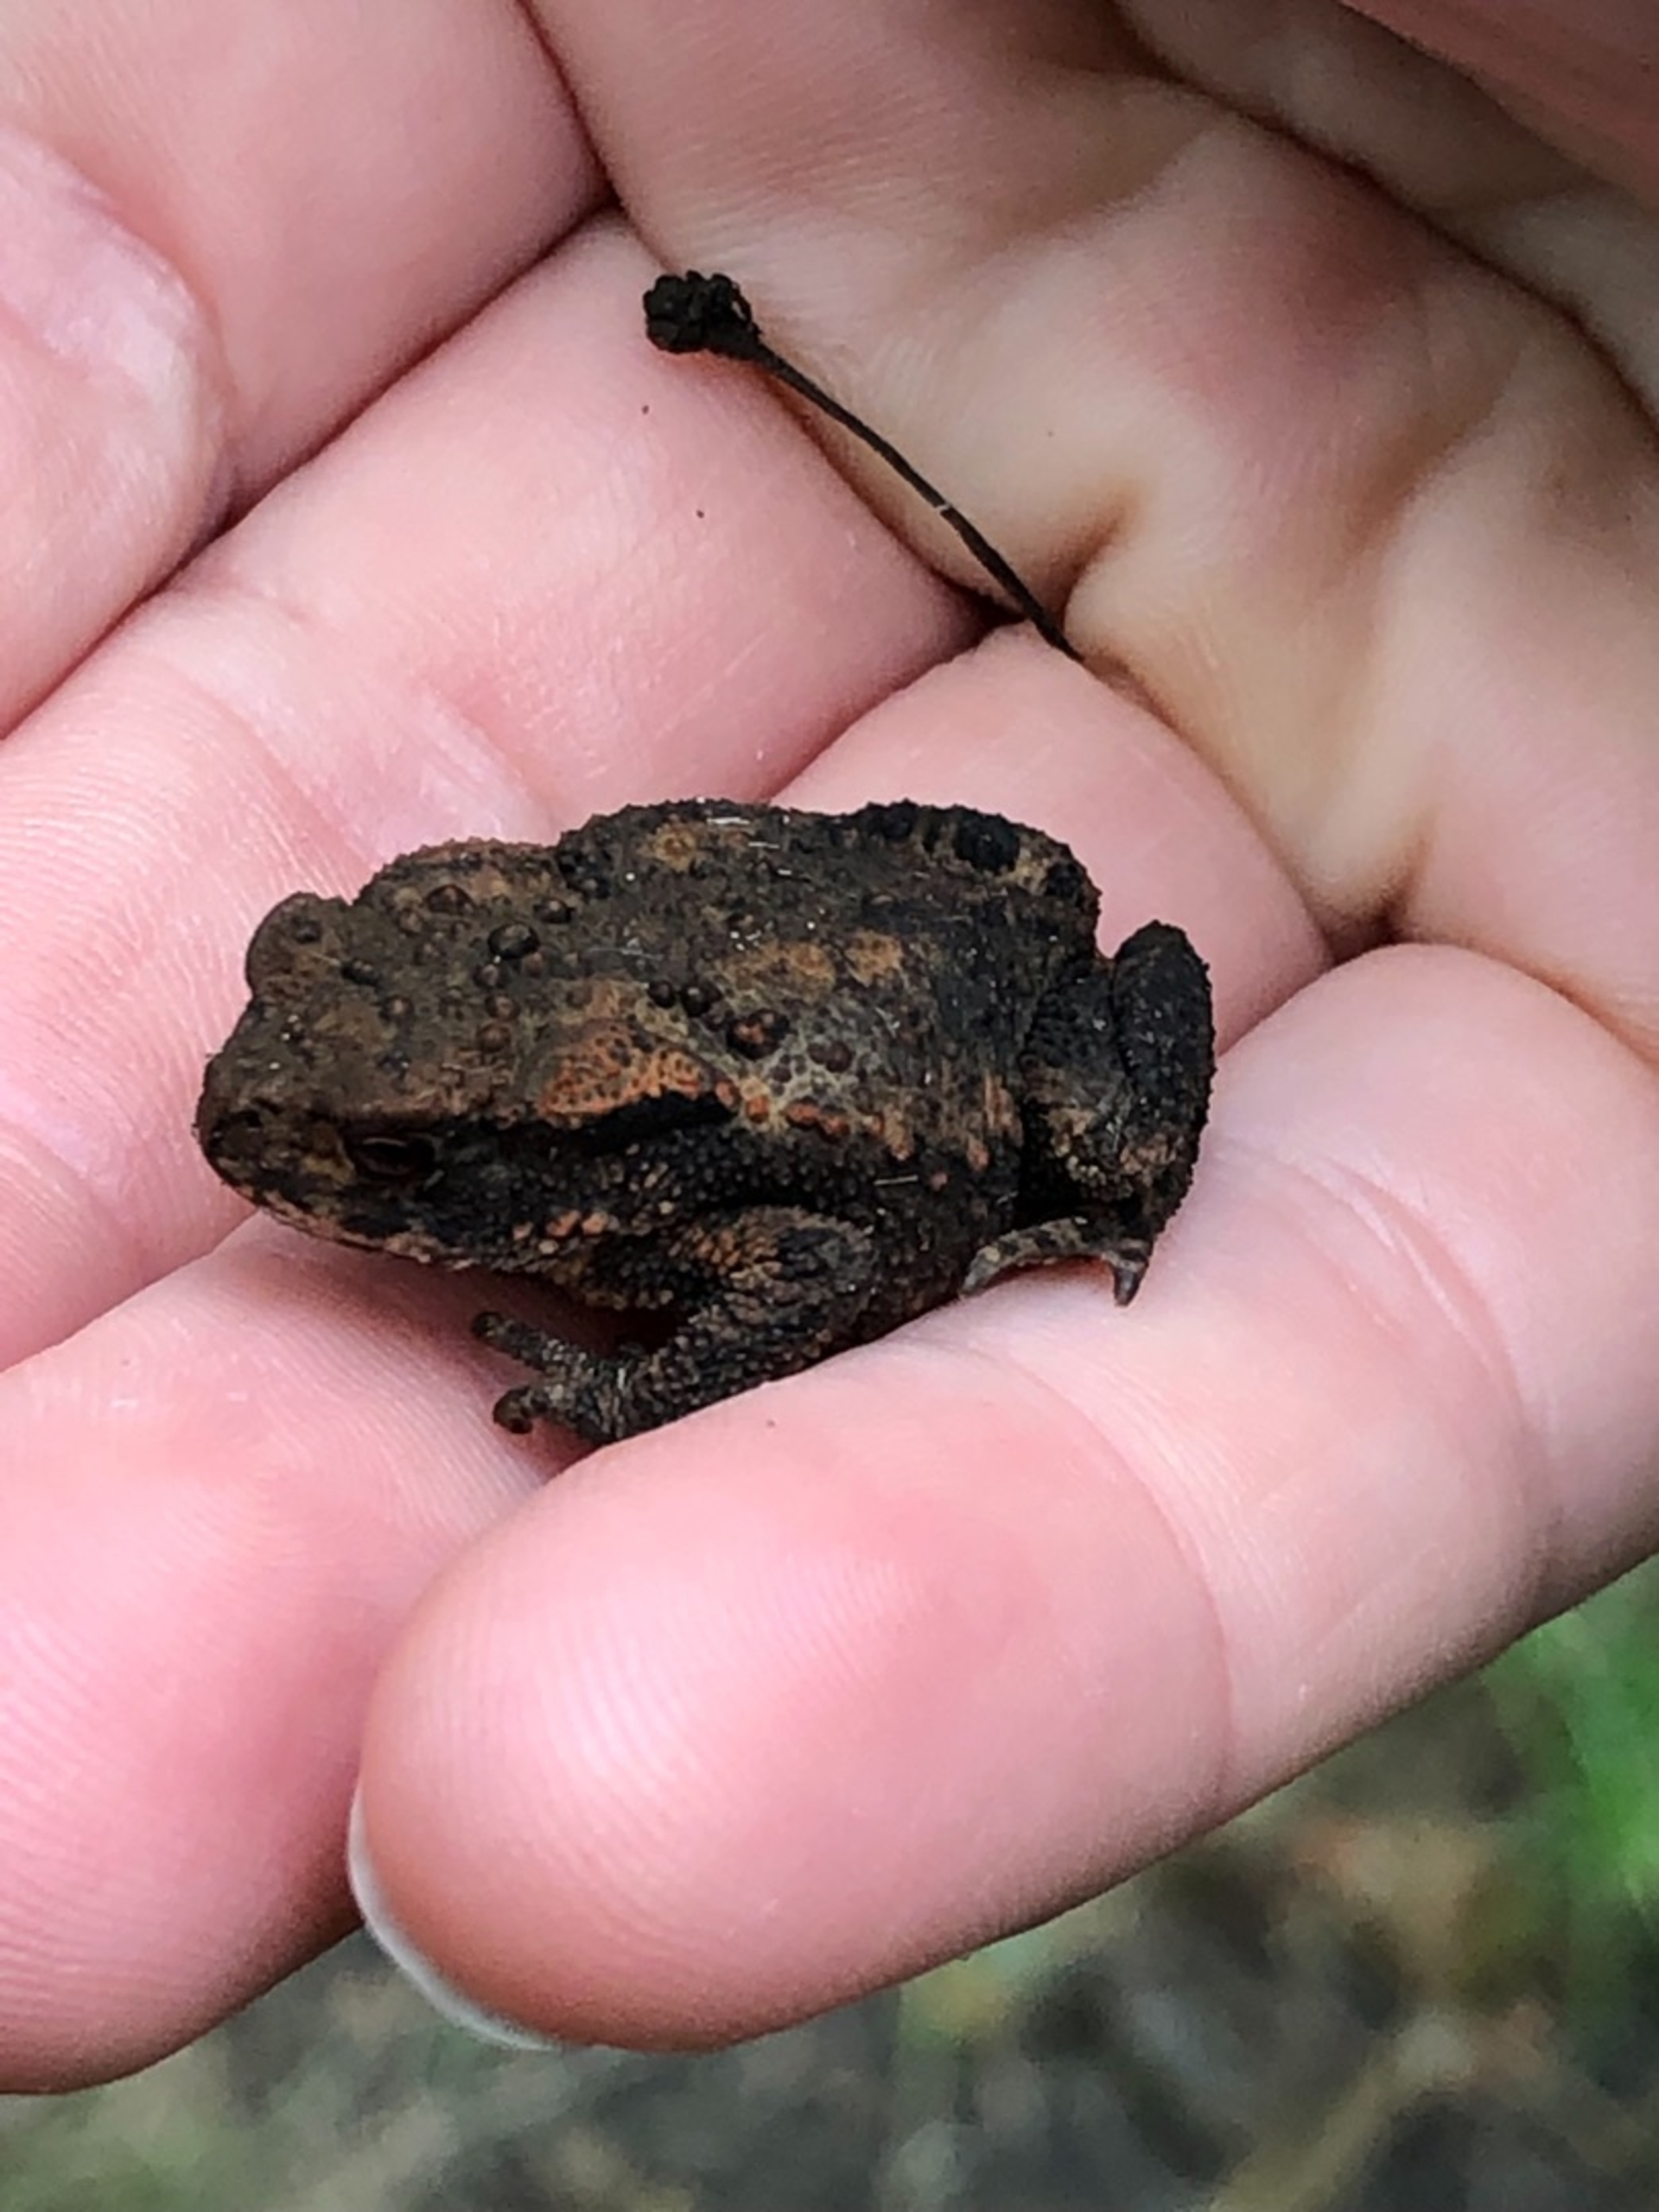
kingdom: Animalia
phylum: Chordata
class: Amphibia
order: Anura
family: Bufonidae
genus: Bufo
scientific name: Bufo bufo
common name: Skrubtudse
